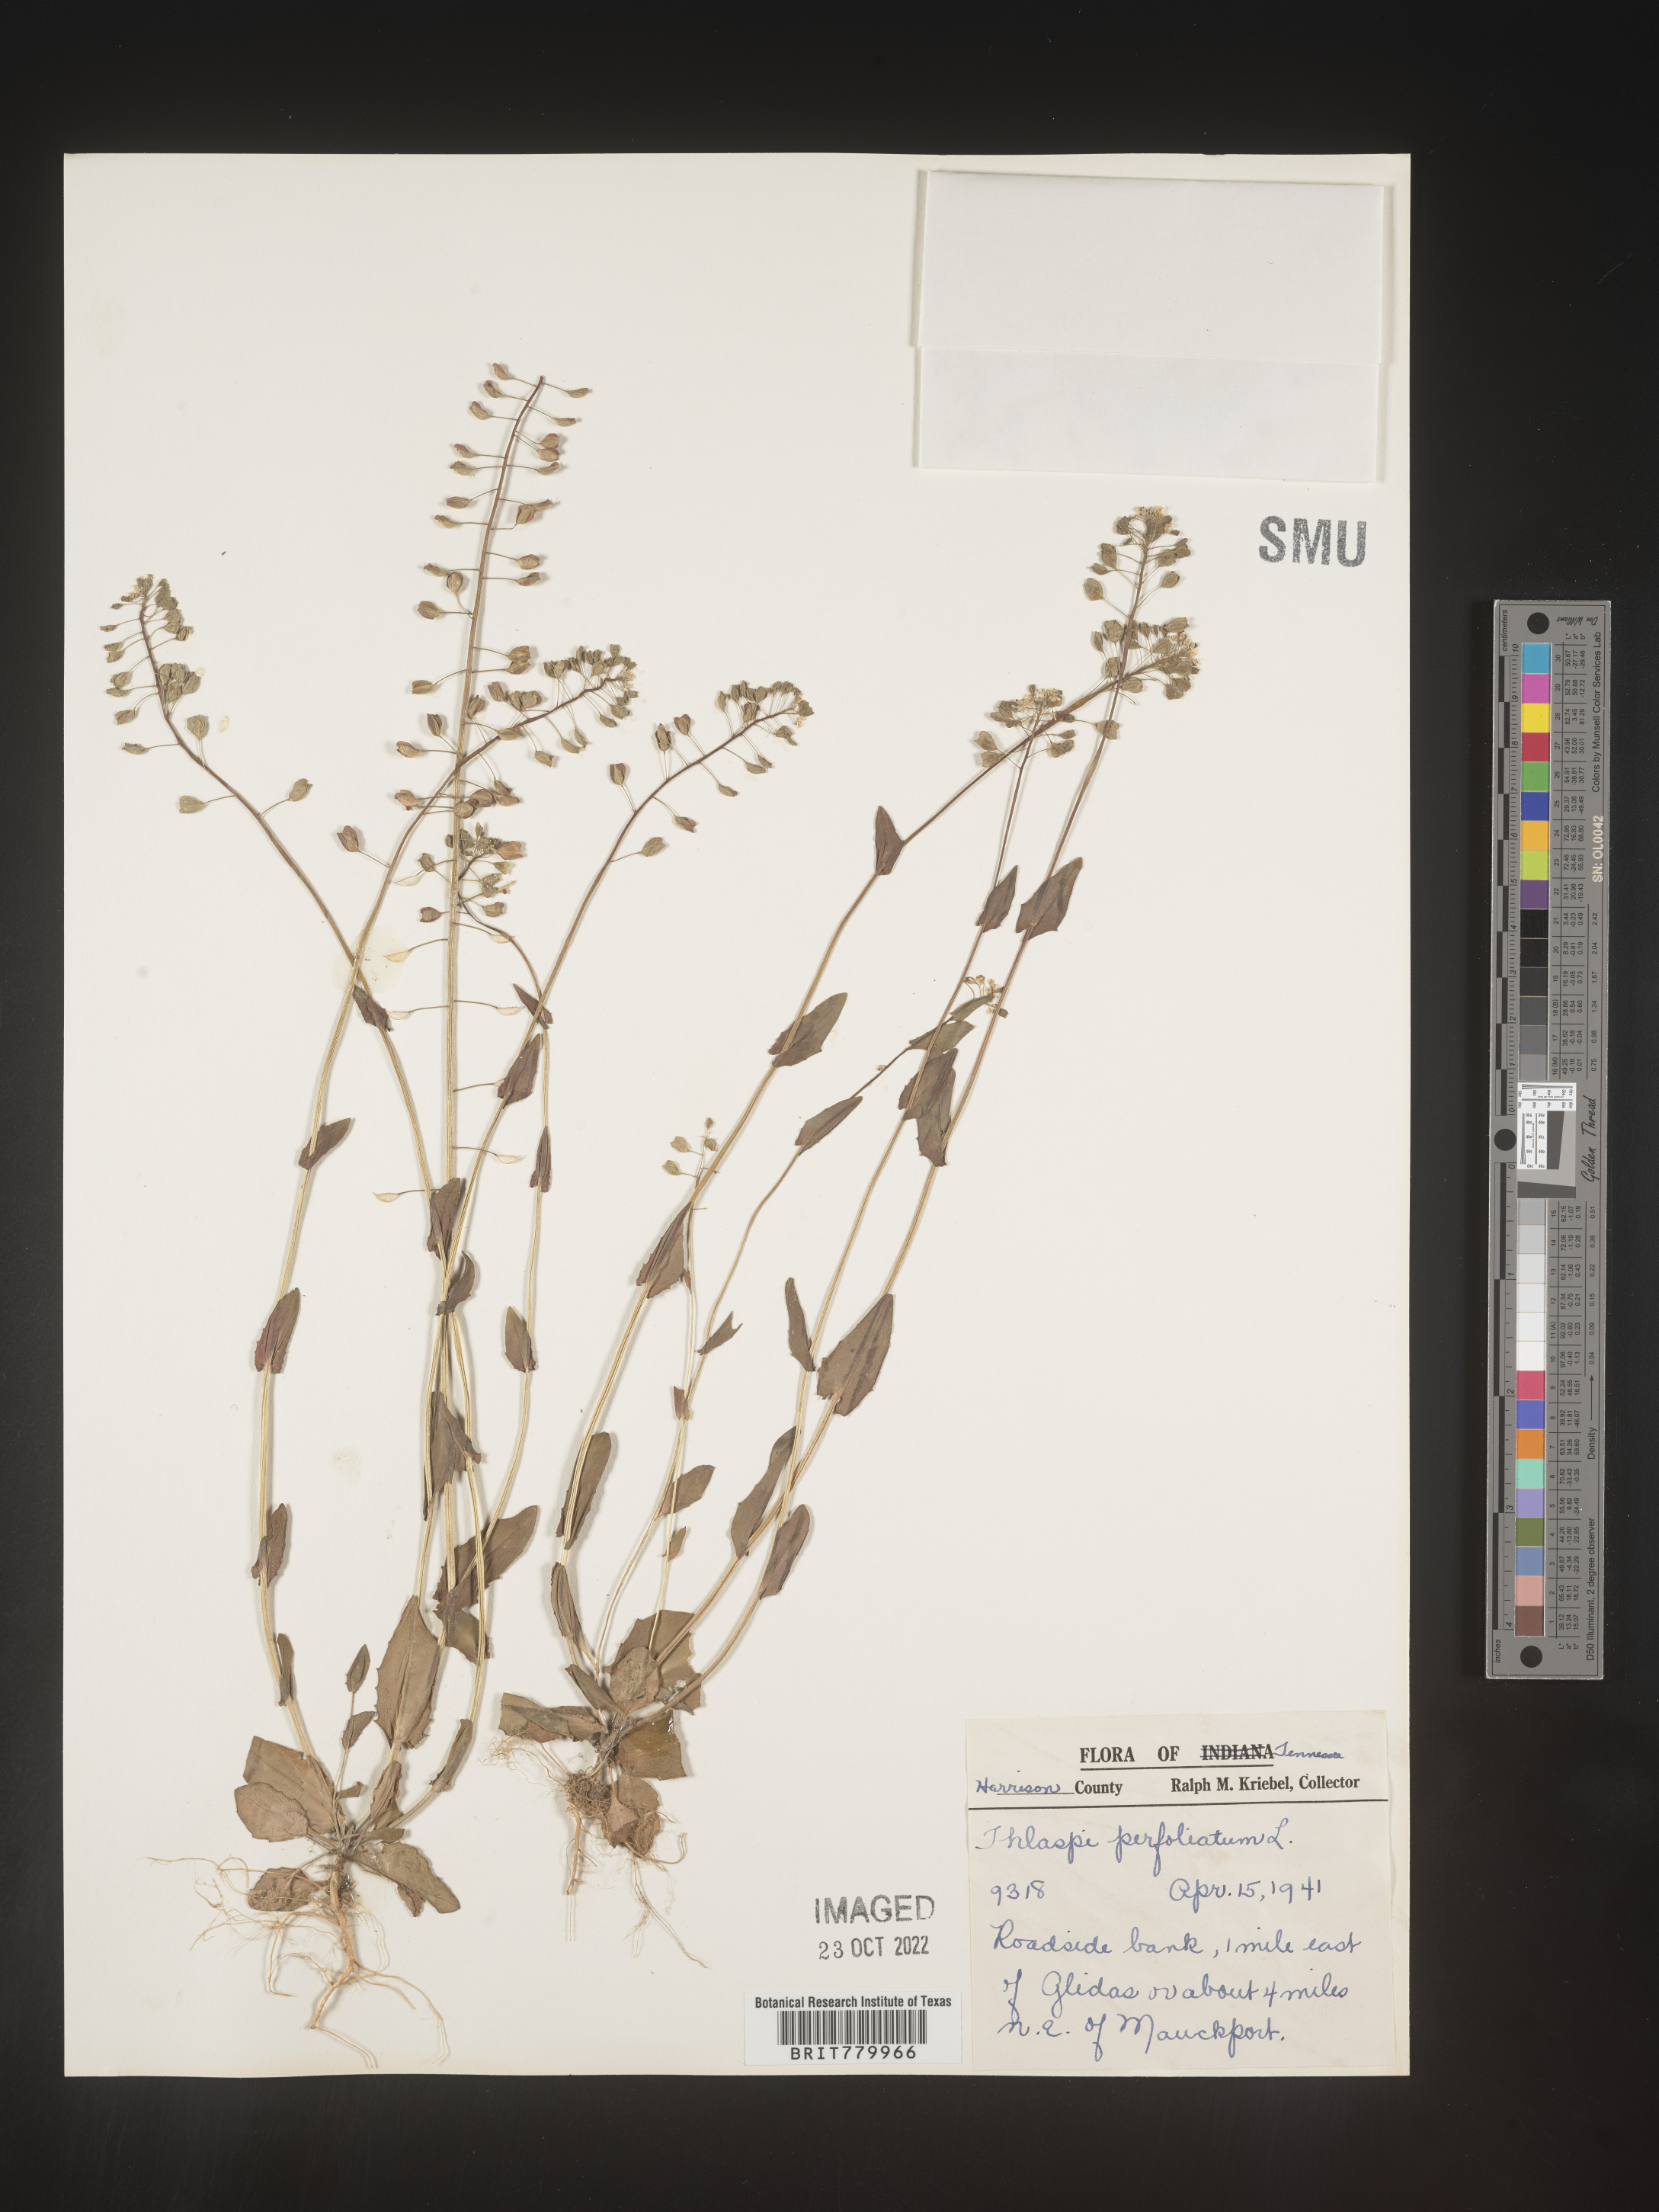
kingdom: Plantae
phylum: Tracheophyta
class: Magnoliopsida
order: Brassicales
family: Brassicaceae
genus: Thlaspi
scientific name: Thlaspi
